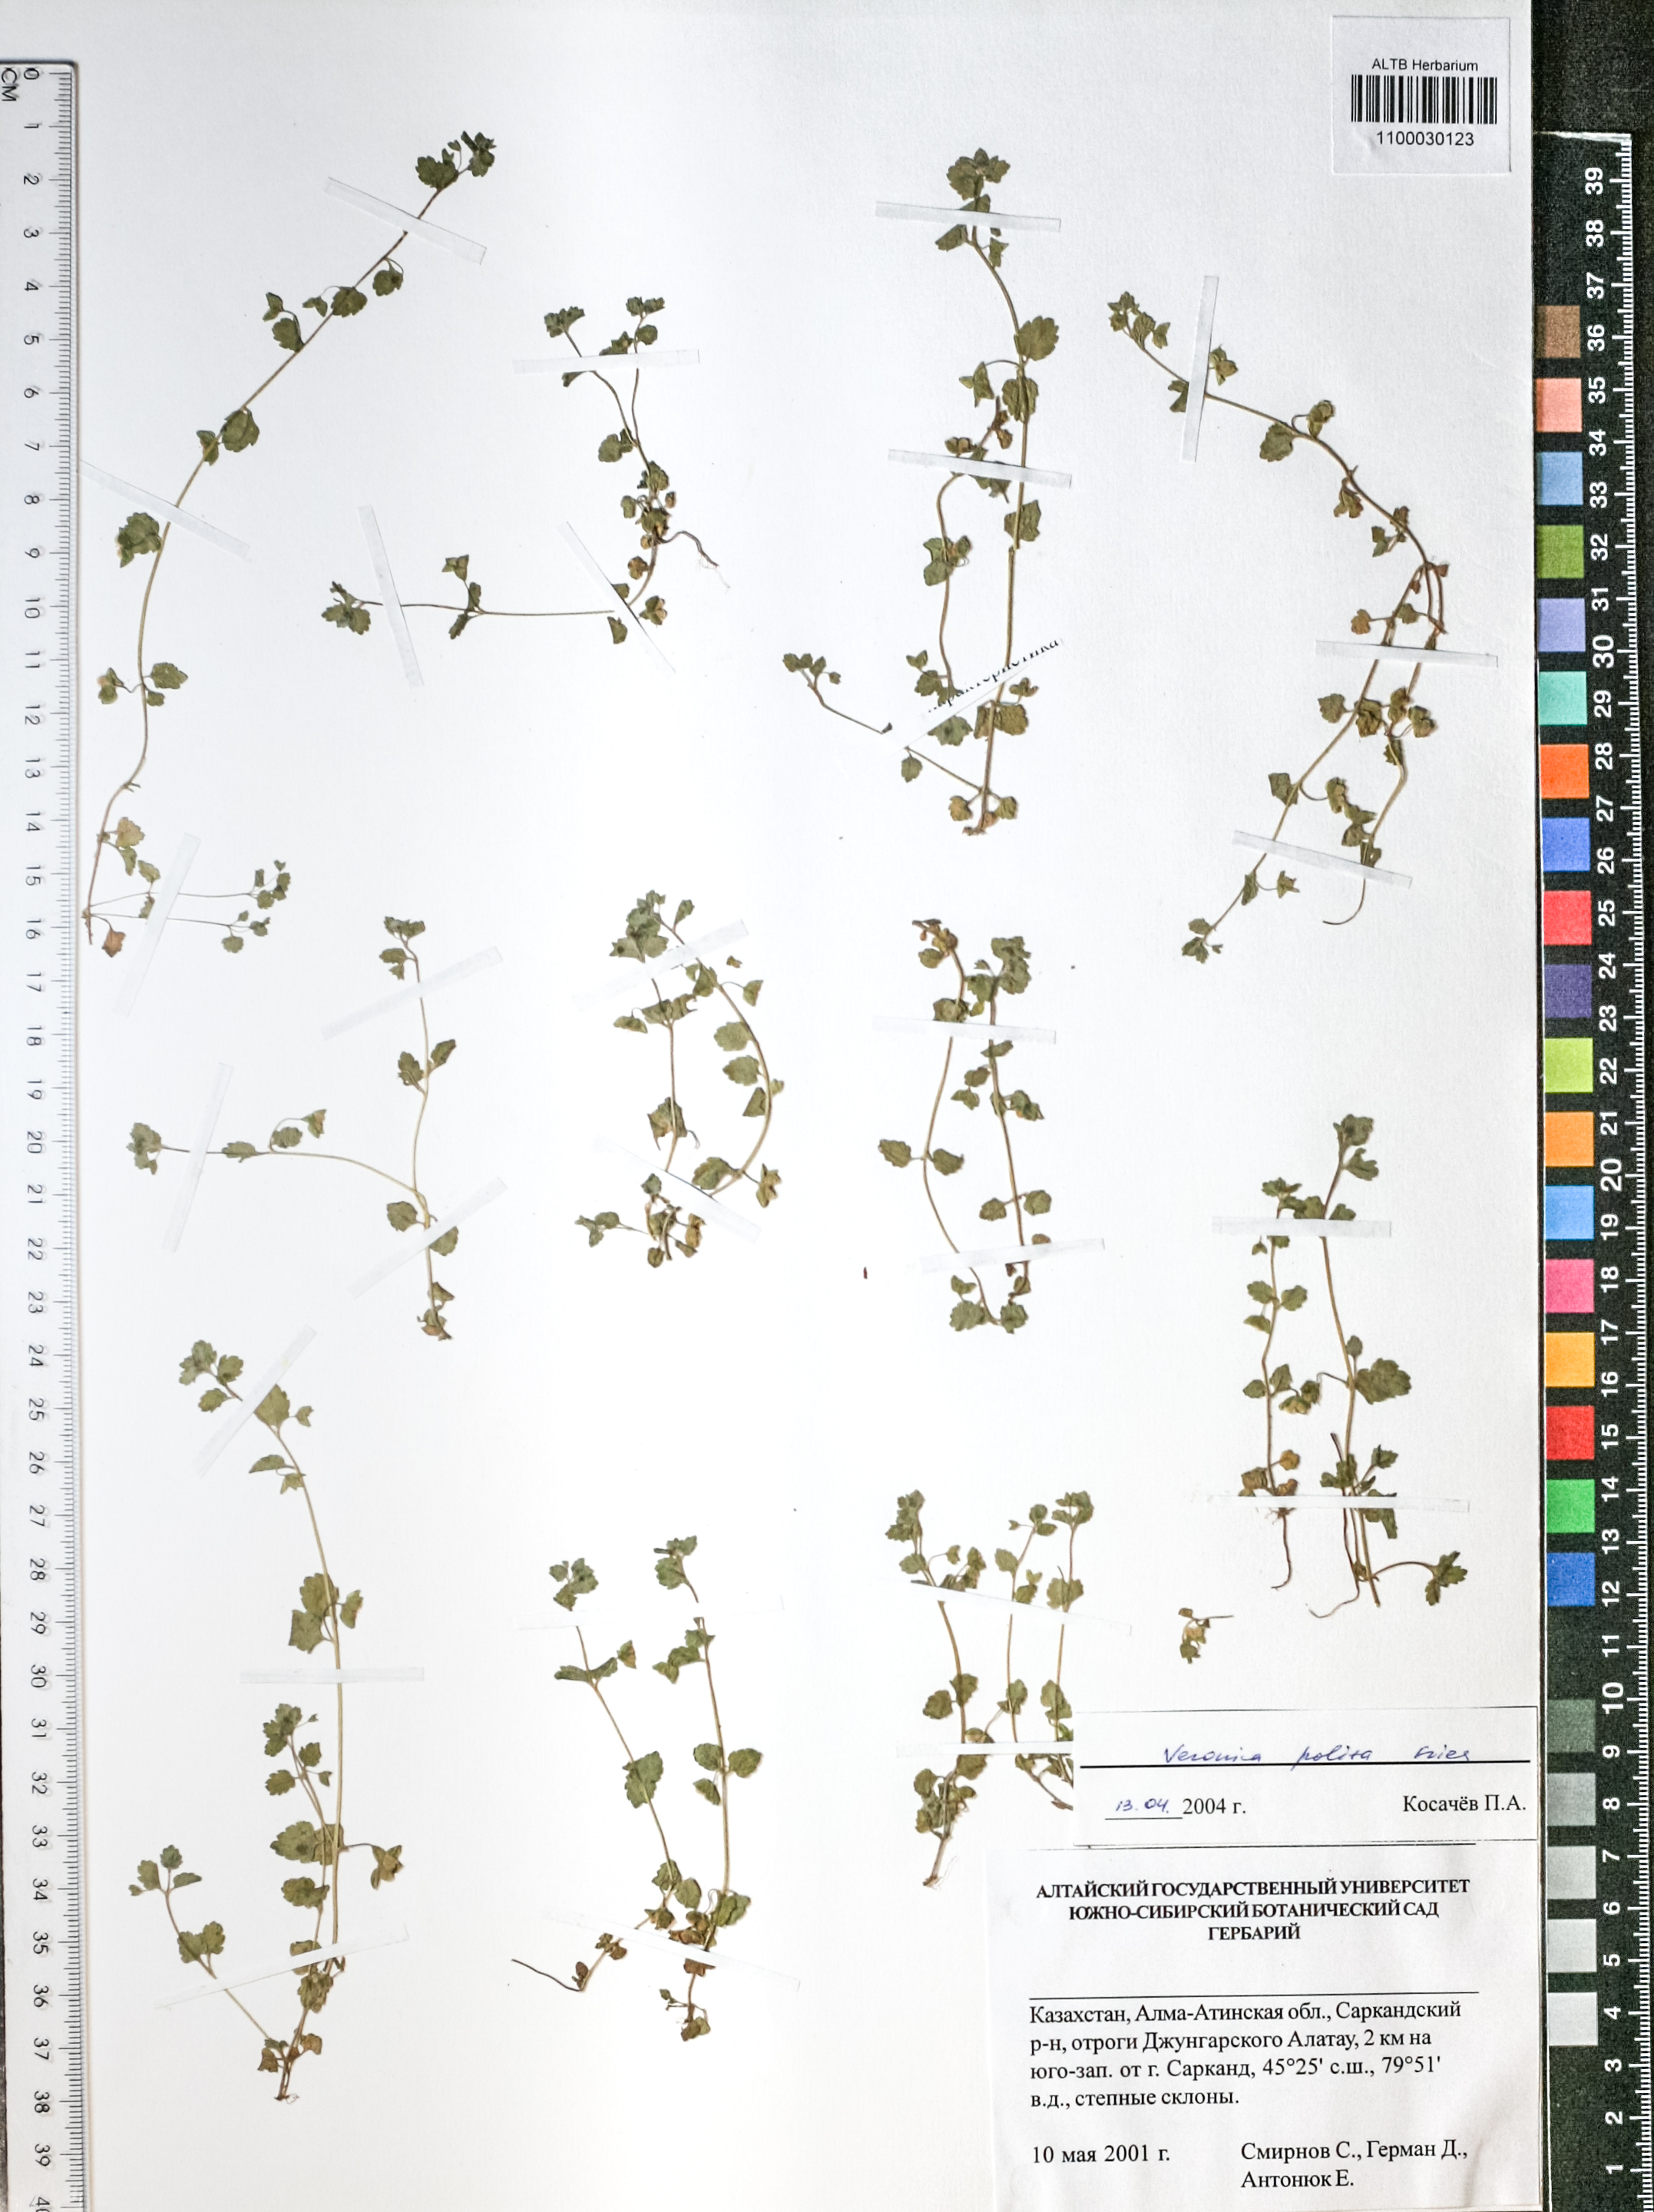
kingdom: Plantae
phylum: Tracheophyta
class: Magnoliopsida
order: Lamiales
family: Plantaginaceae
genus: Veronica
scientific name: Veronica polita
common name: Grey field-speedwell
